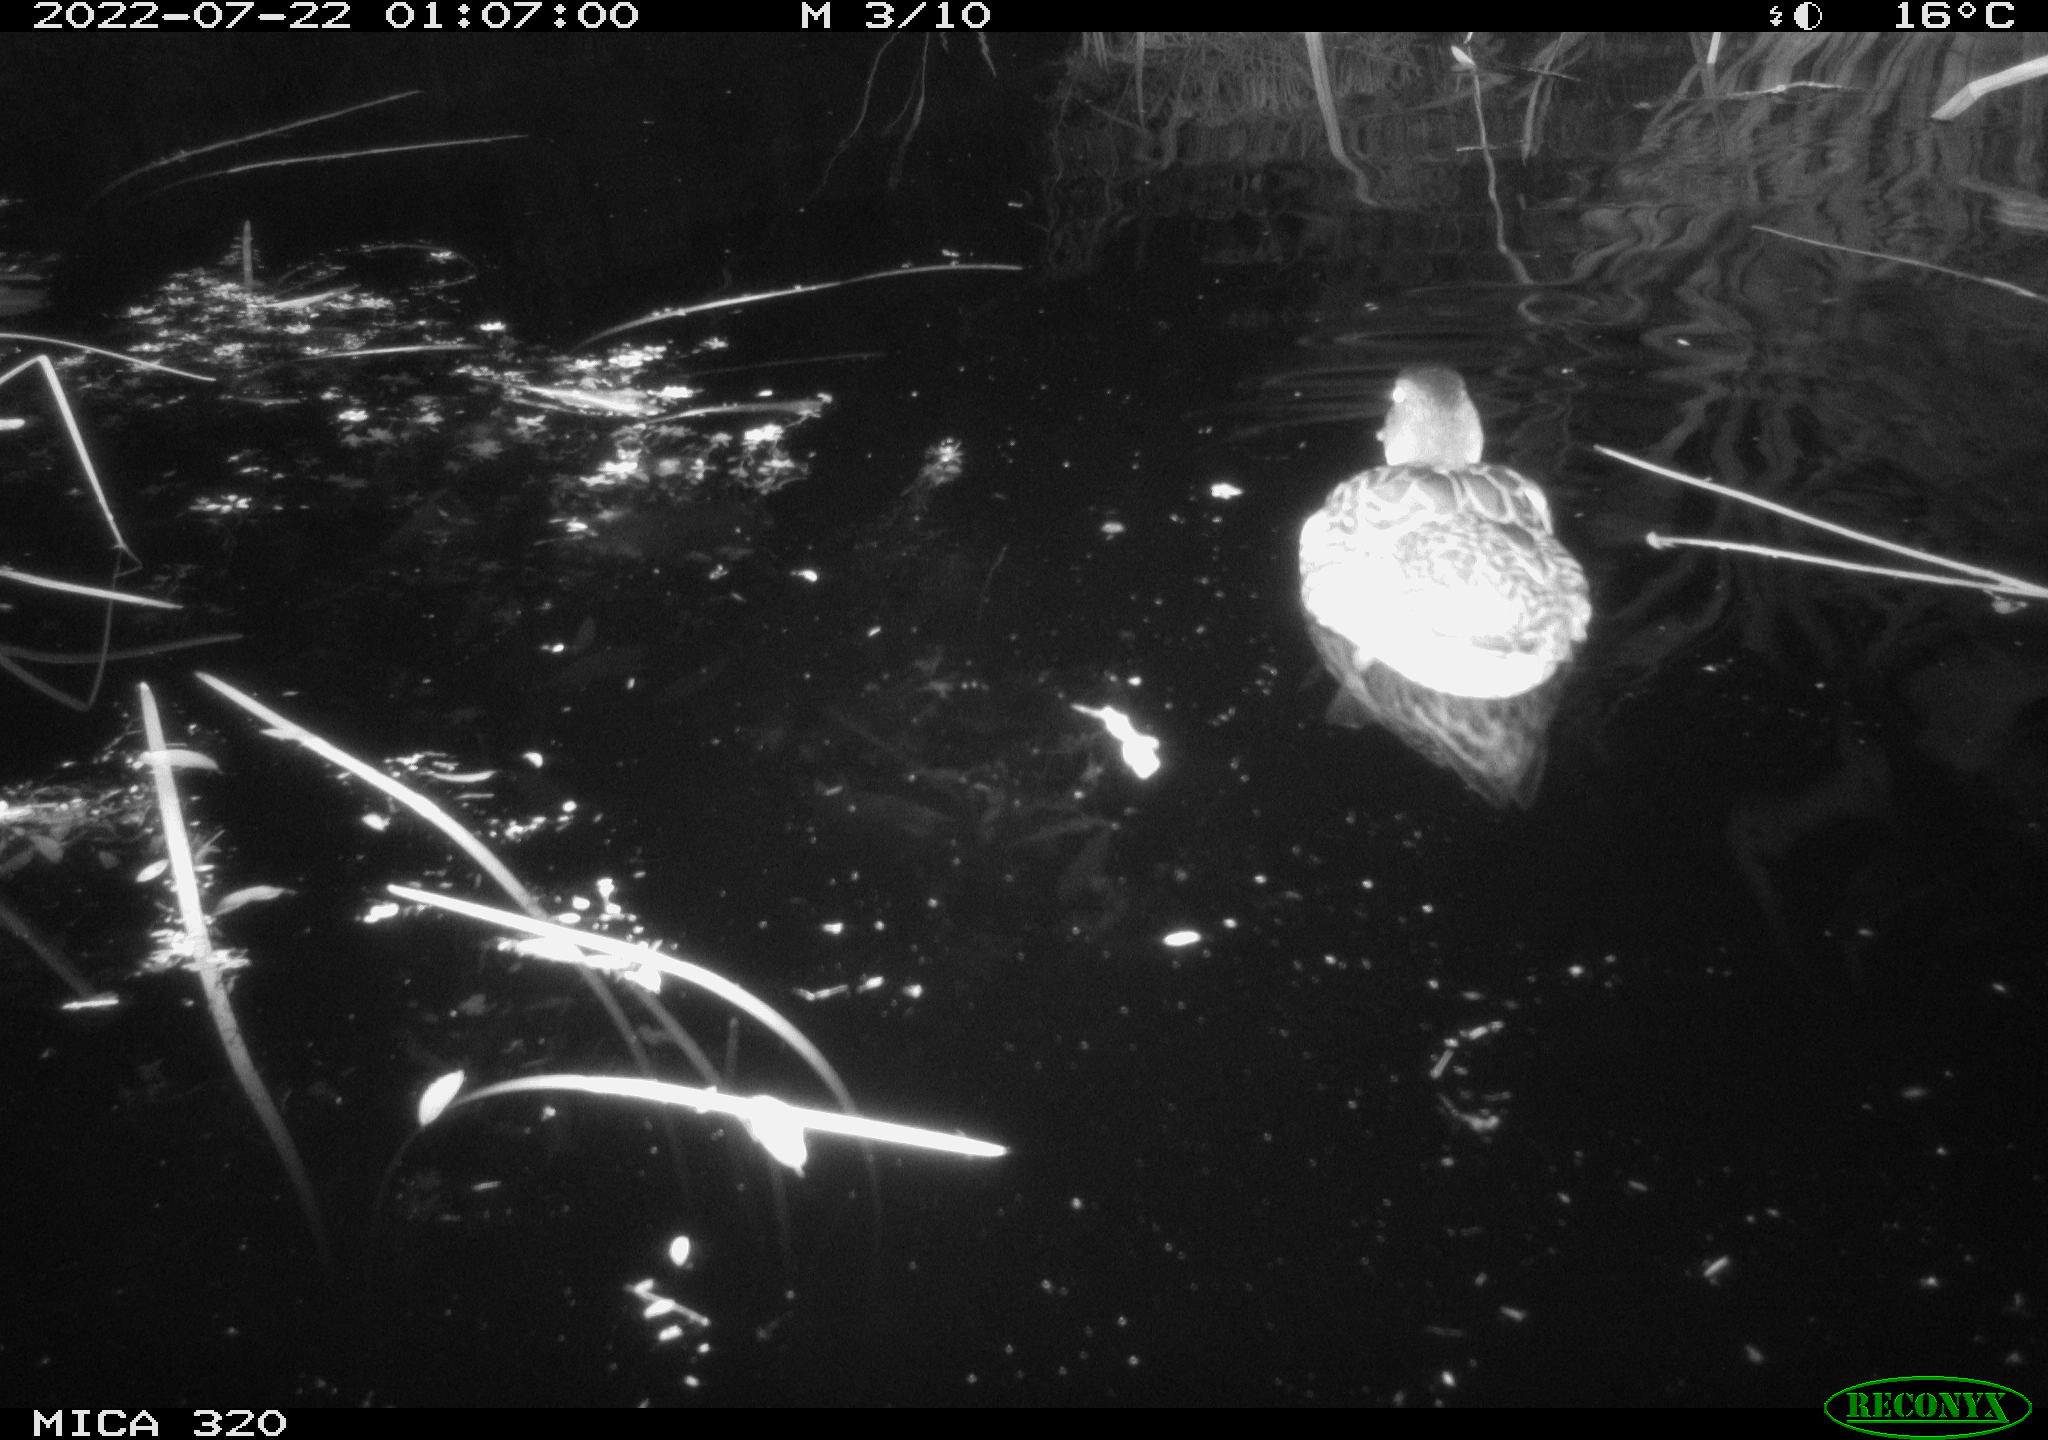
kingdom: Animalia
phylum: Chordata
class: Aves
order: Anseriformes
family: Anatidae
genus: Anas
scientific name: Anas platyrhynchos
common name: Mallard
